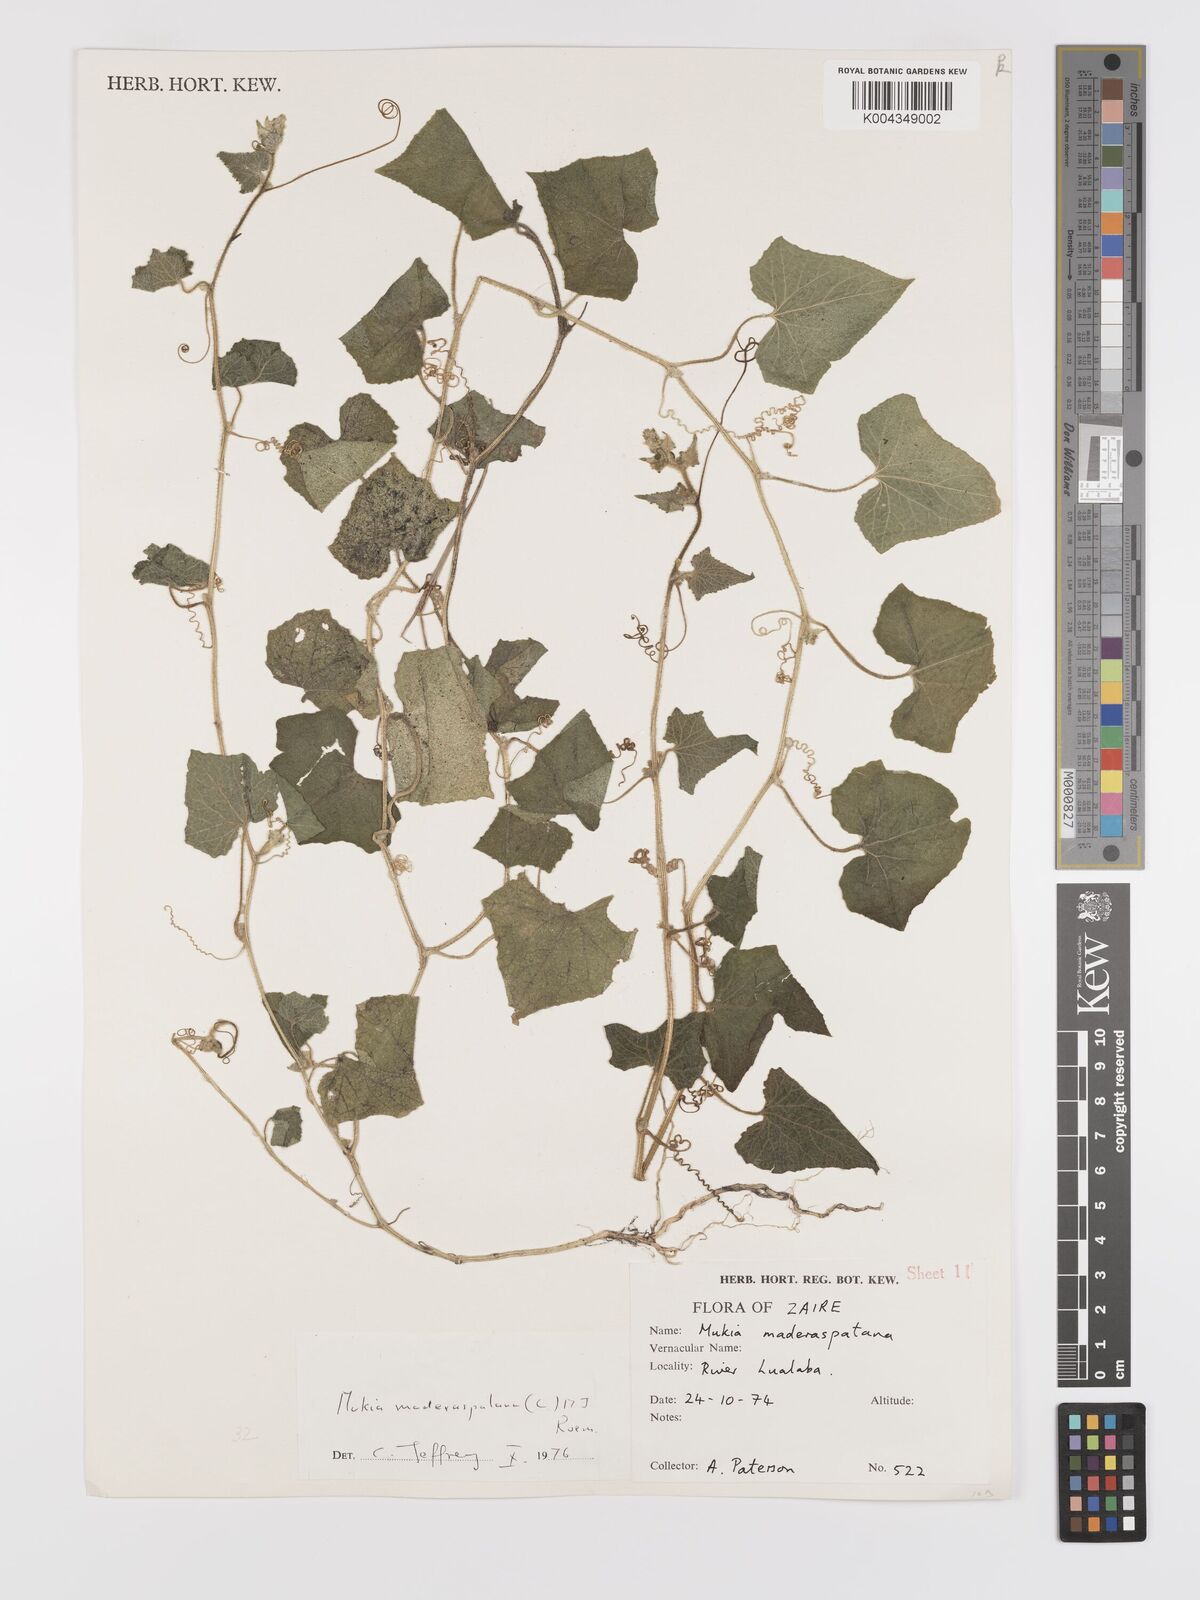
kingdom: Plantae
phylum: Tracheophyta
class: Magnoliopsida
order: Cucurbitales
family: Cucurbitaceae
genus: Cucumis
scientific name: Cucumis maderaspatanus
